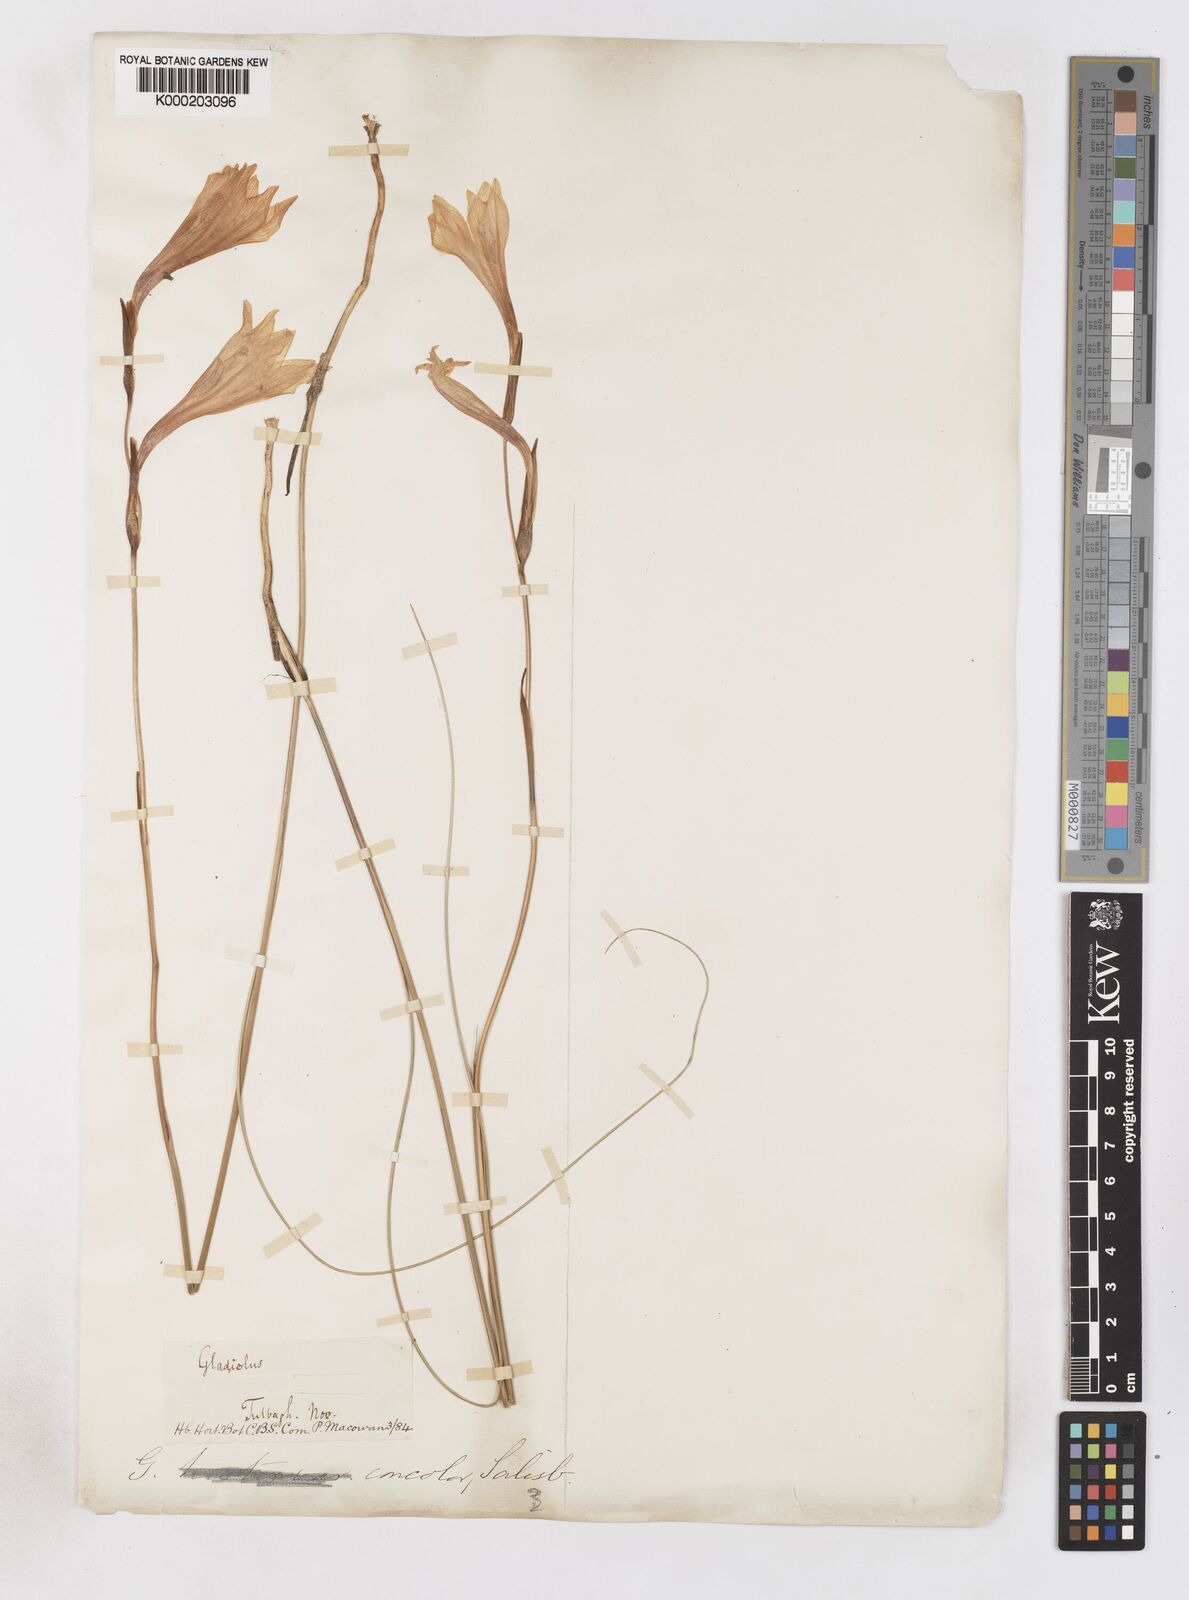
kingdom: Plantae
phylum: Tracheophyta
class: Liliopsida
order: Asparagales
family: Iridaceae
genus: Gladiolus
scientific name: Gladiolus tristis
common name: Ever-flowering gladiolus
